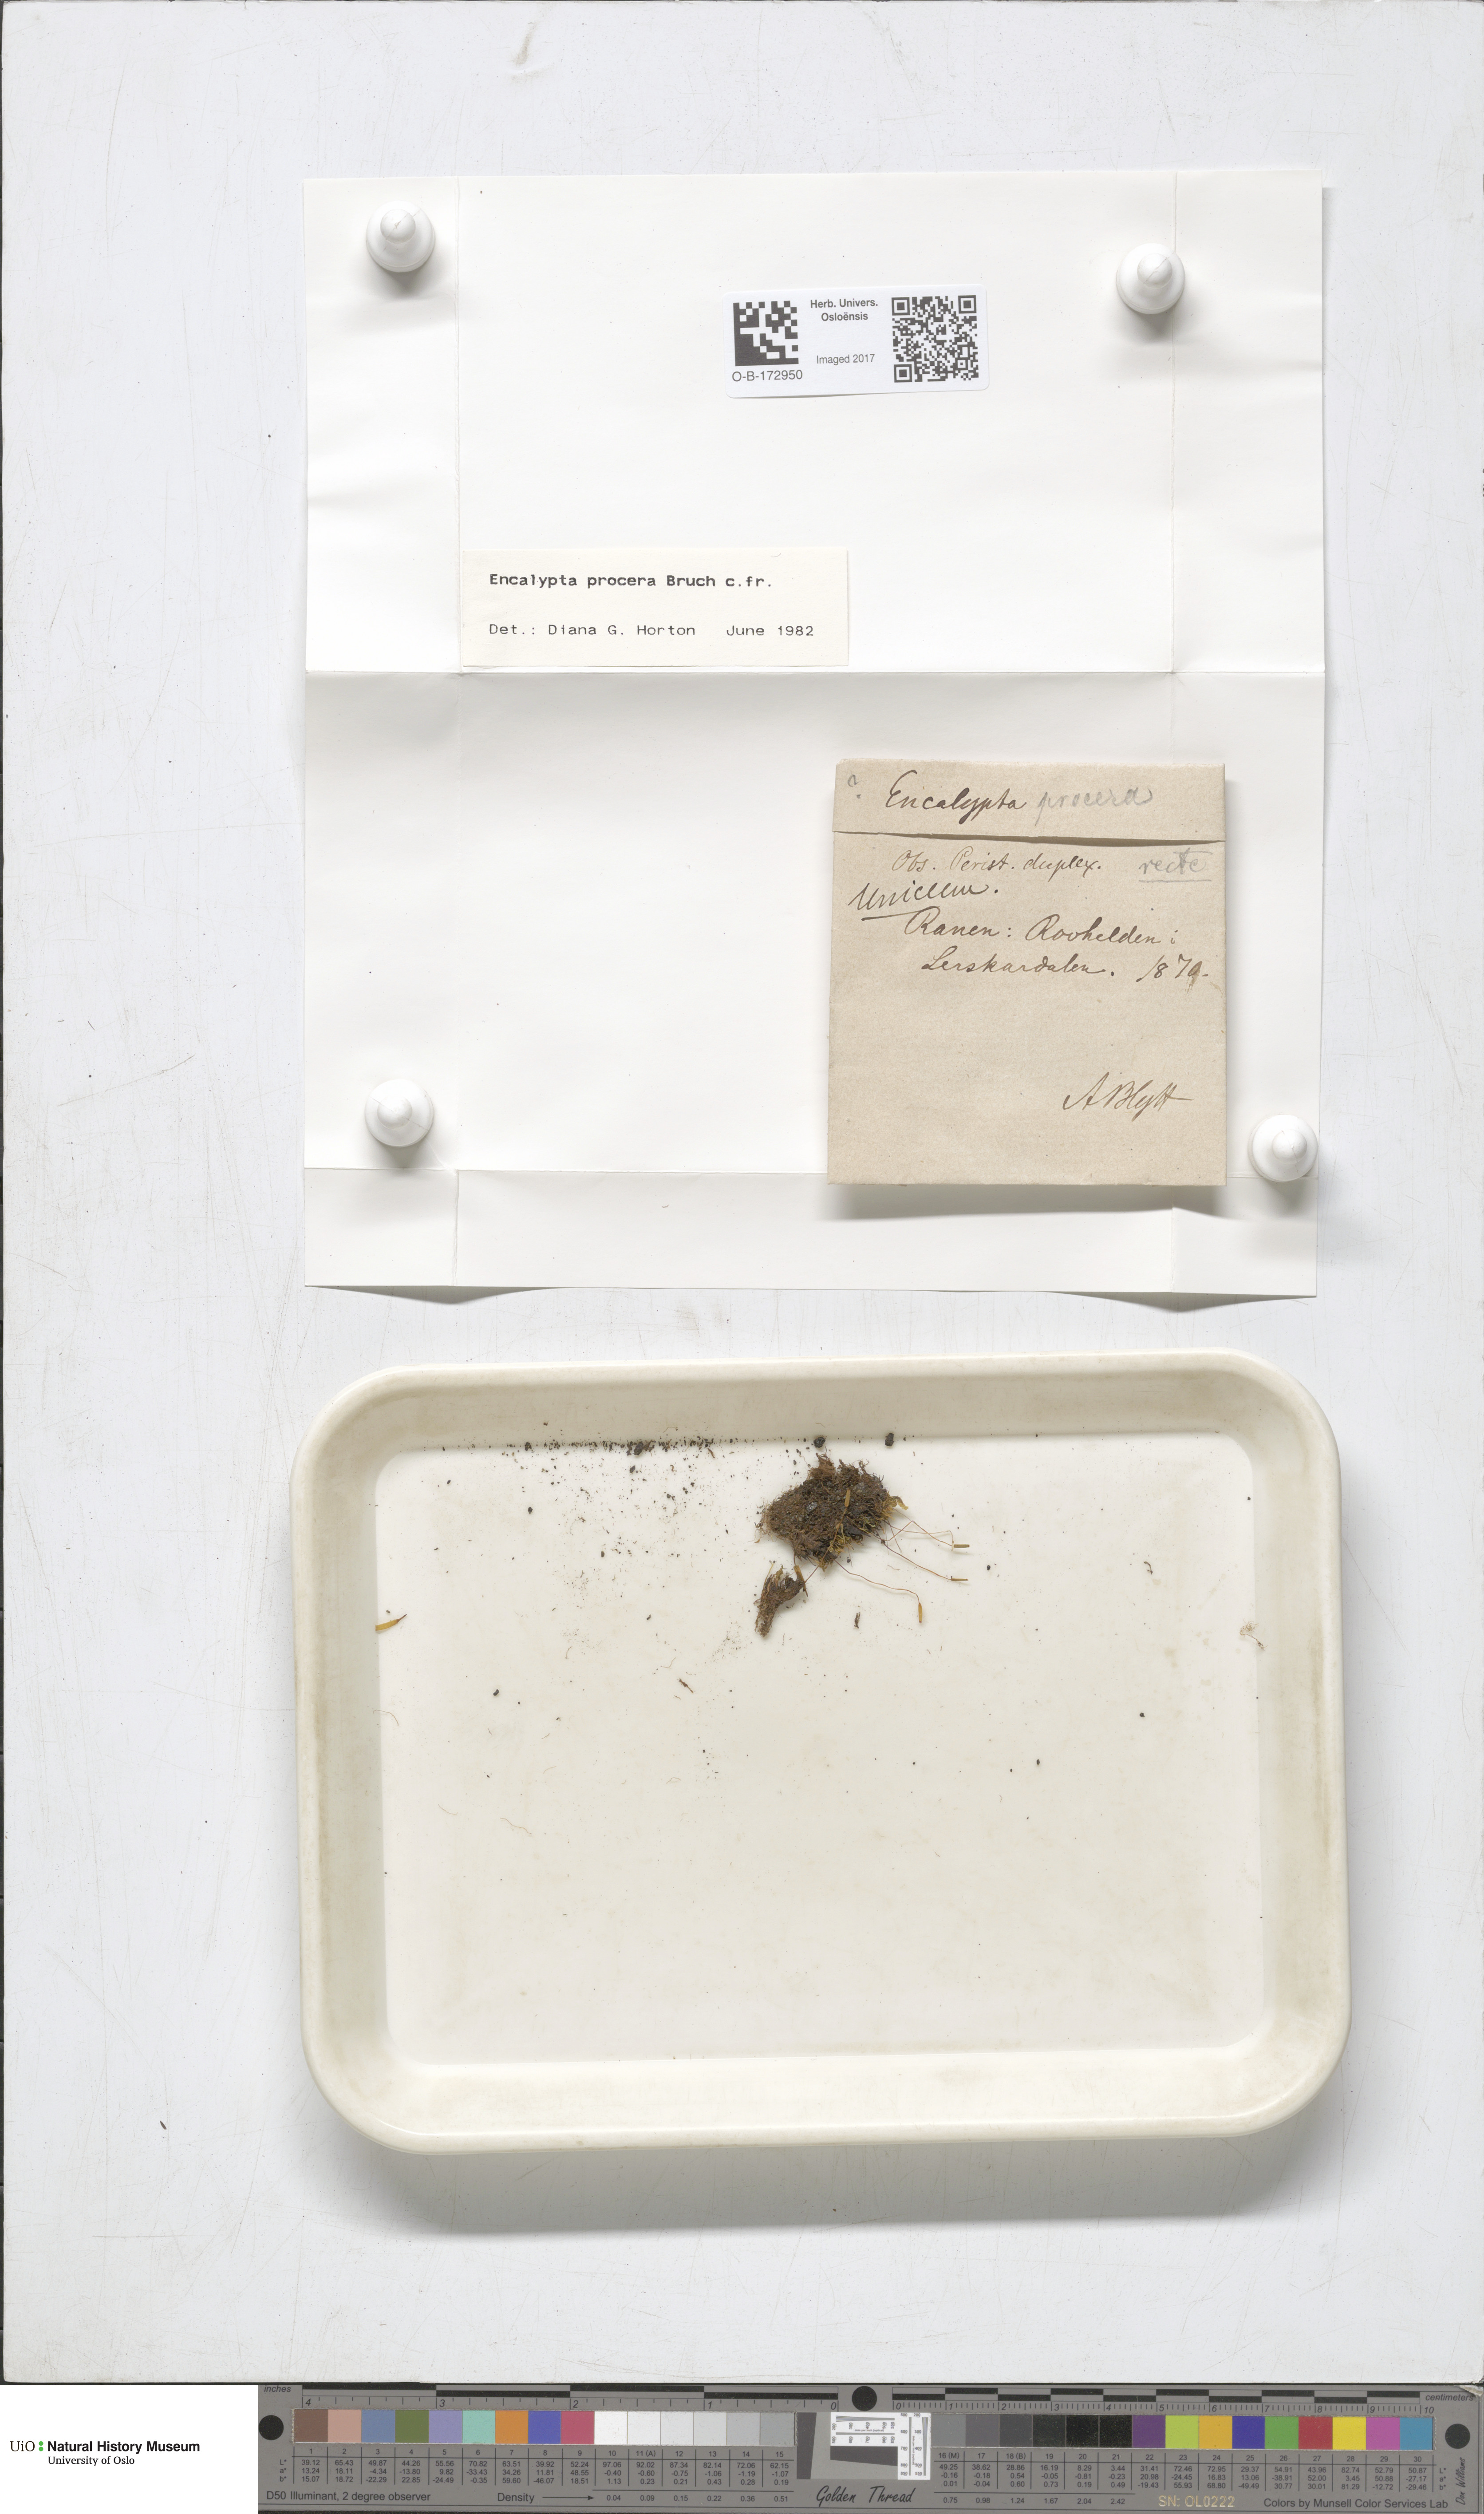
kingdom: Plantae
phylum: Bryophyta
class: Bryopsida
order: Encalyptales
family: Encalyptaceae
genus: Encalypta
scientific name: Encalypta procera
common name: Spiral extinguisher moss
